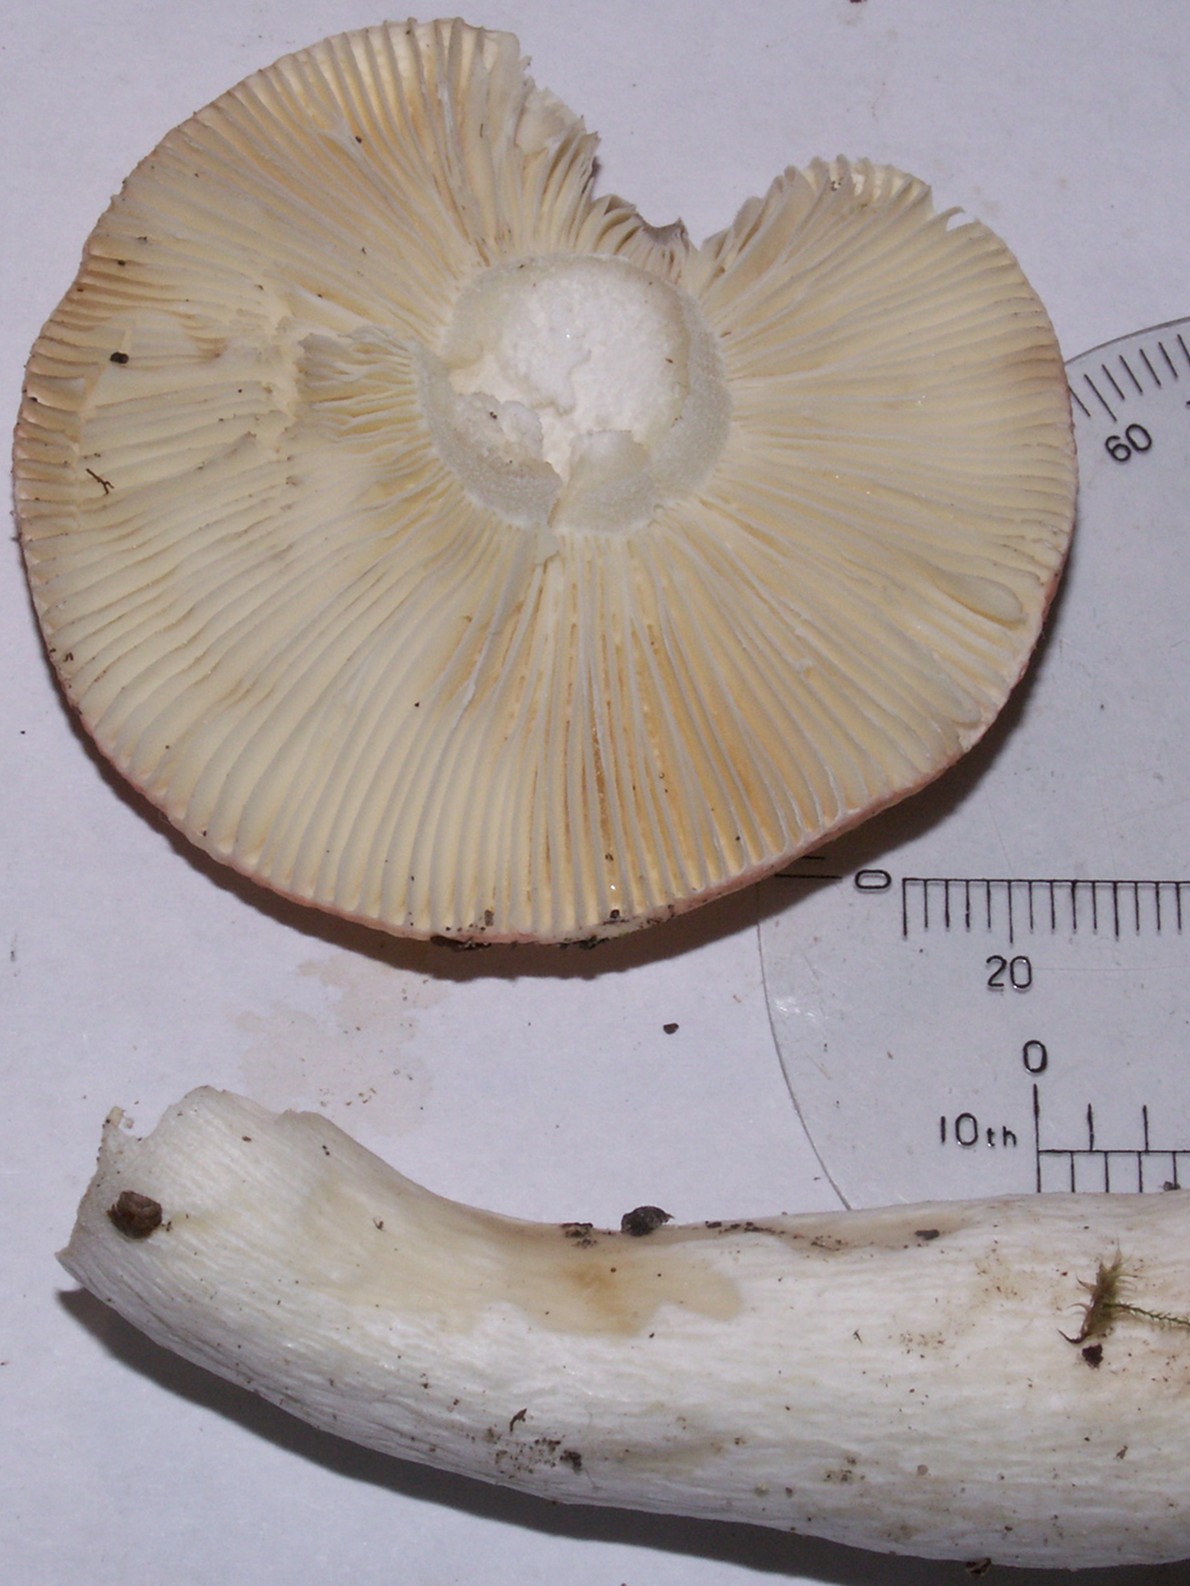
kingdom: Fungi
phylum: Basidiomycota
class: Agaricomycetes
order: Russulales
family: Russulaceae
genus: Russula
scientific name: Russula aurora
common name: rosa skørhat
